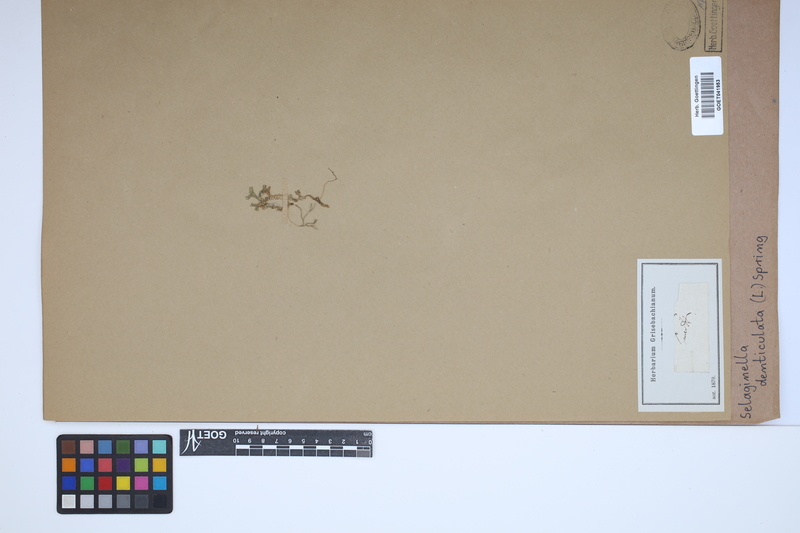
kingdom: Plantae
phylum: Tracheophyta
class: Lycopodiopsida
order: Selaginellales
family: Selaginellaceae
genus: Selaginella
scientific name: Selaginella denticulata
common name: Toothed-leaved clubmoss
